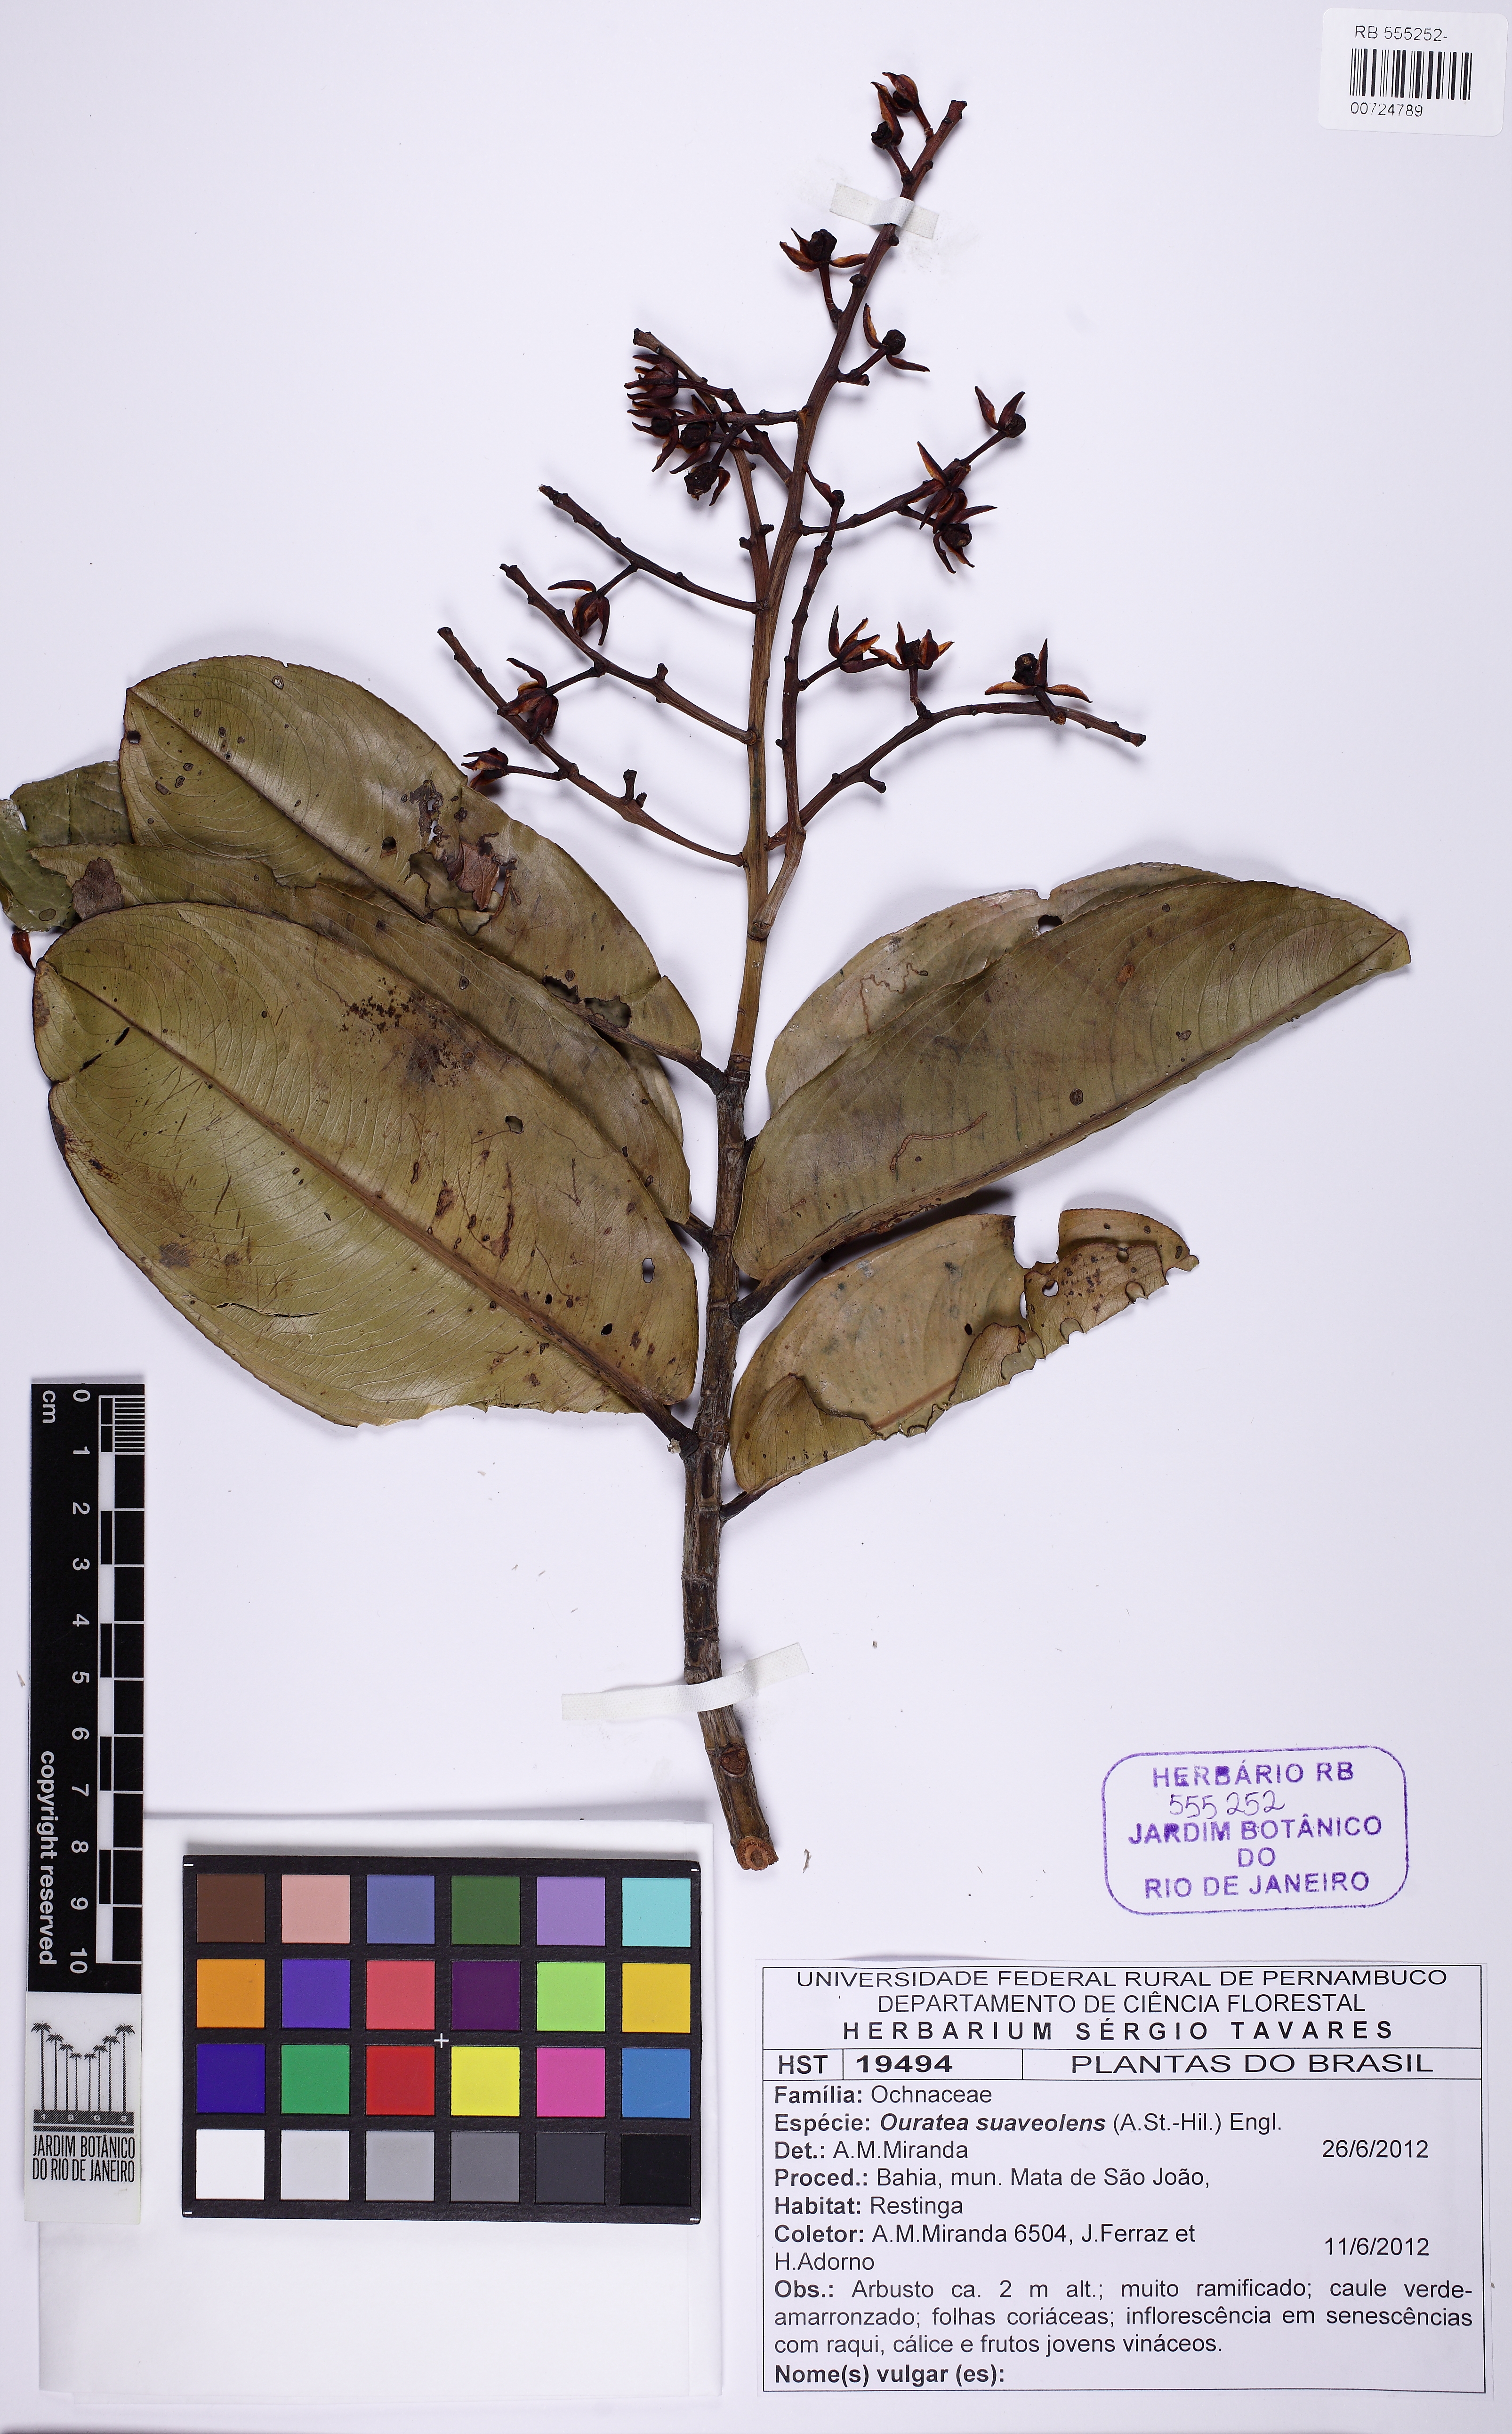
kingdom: Plantae
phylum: Tracheophyta
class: Magnoliopsida
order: Malpighiales
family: Ochnaceae
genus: Ouratea
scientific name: Ouratea suaveolens
